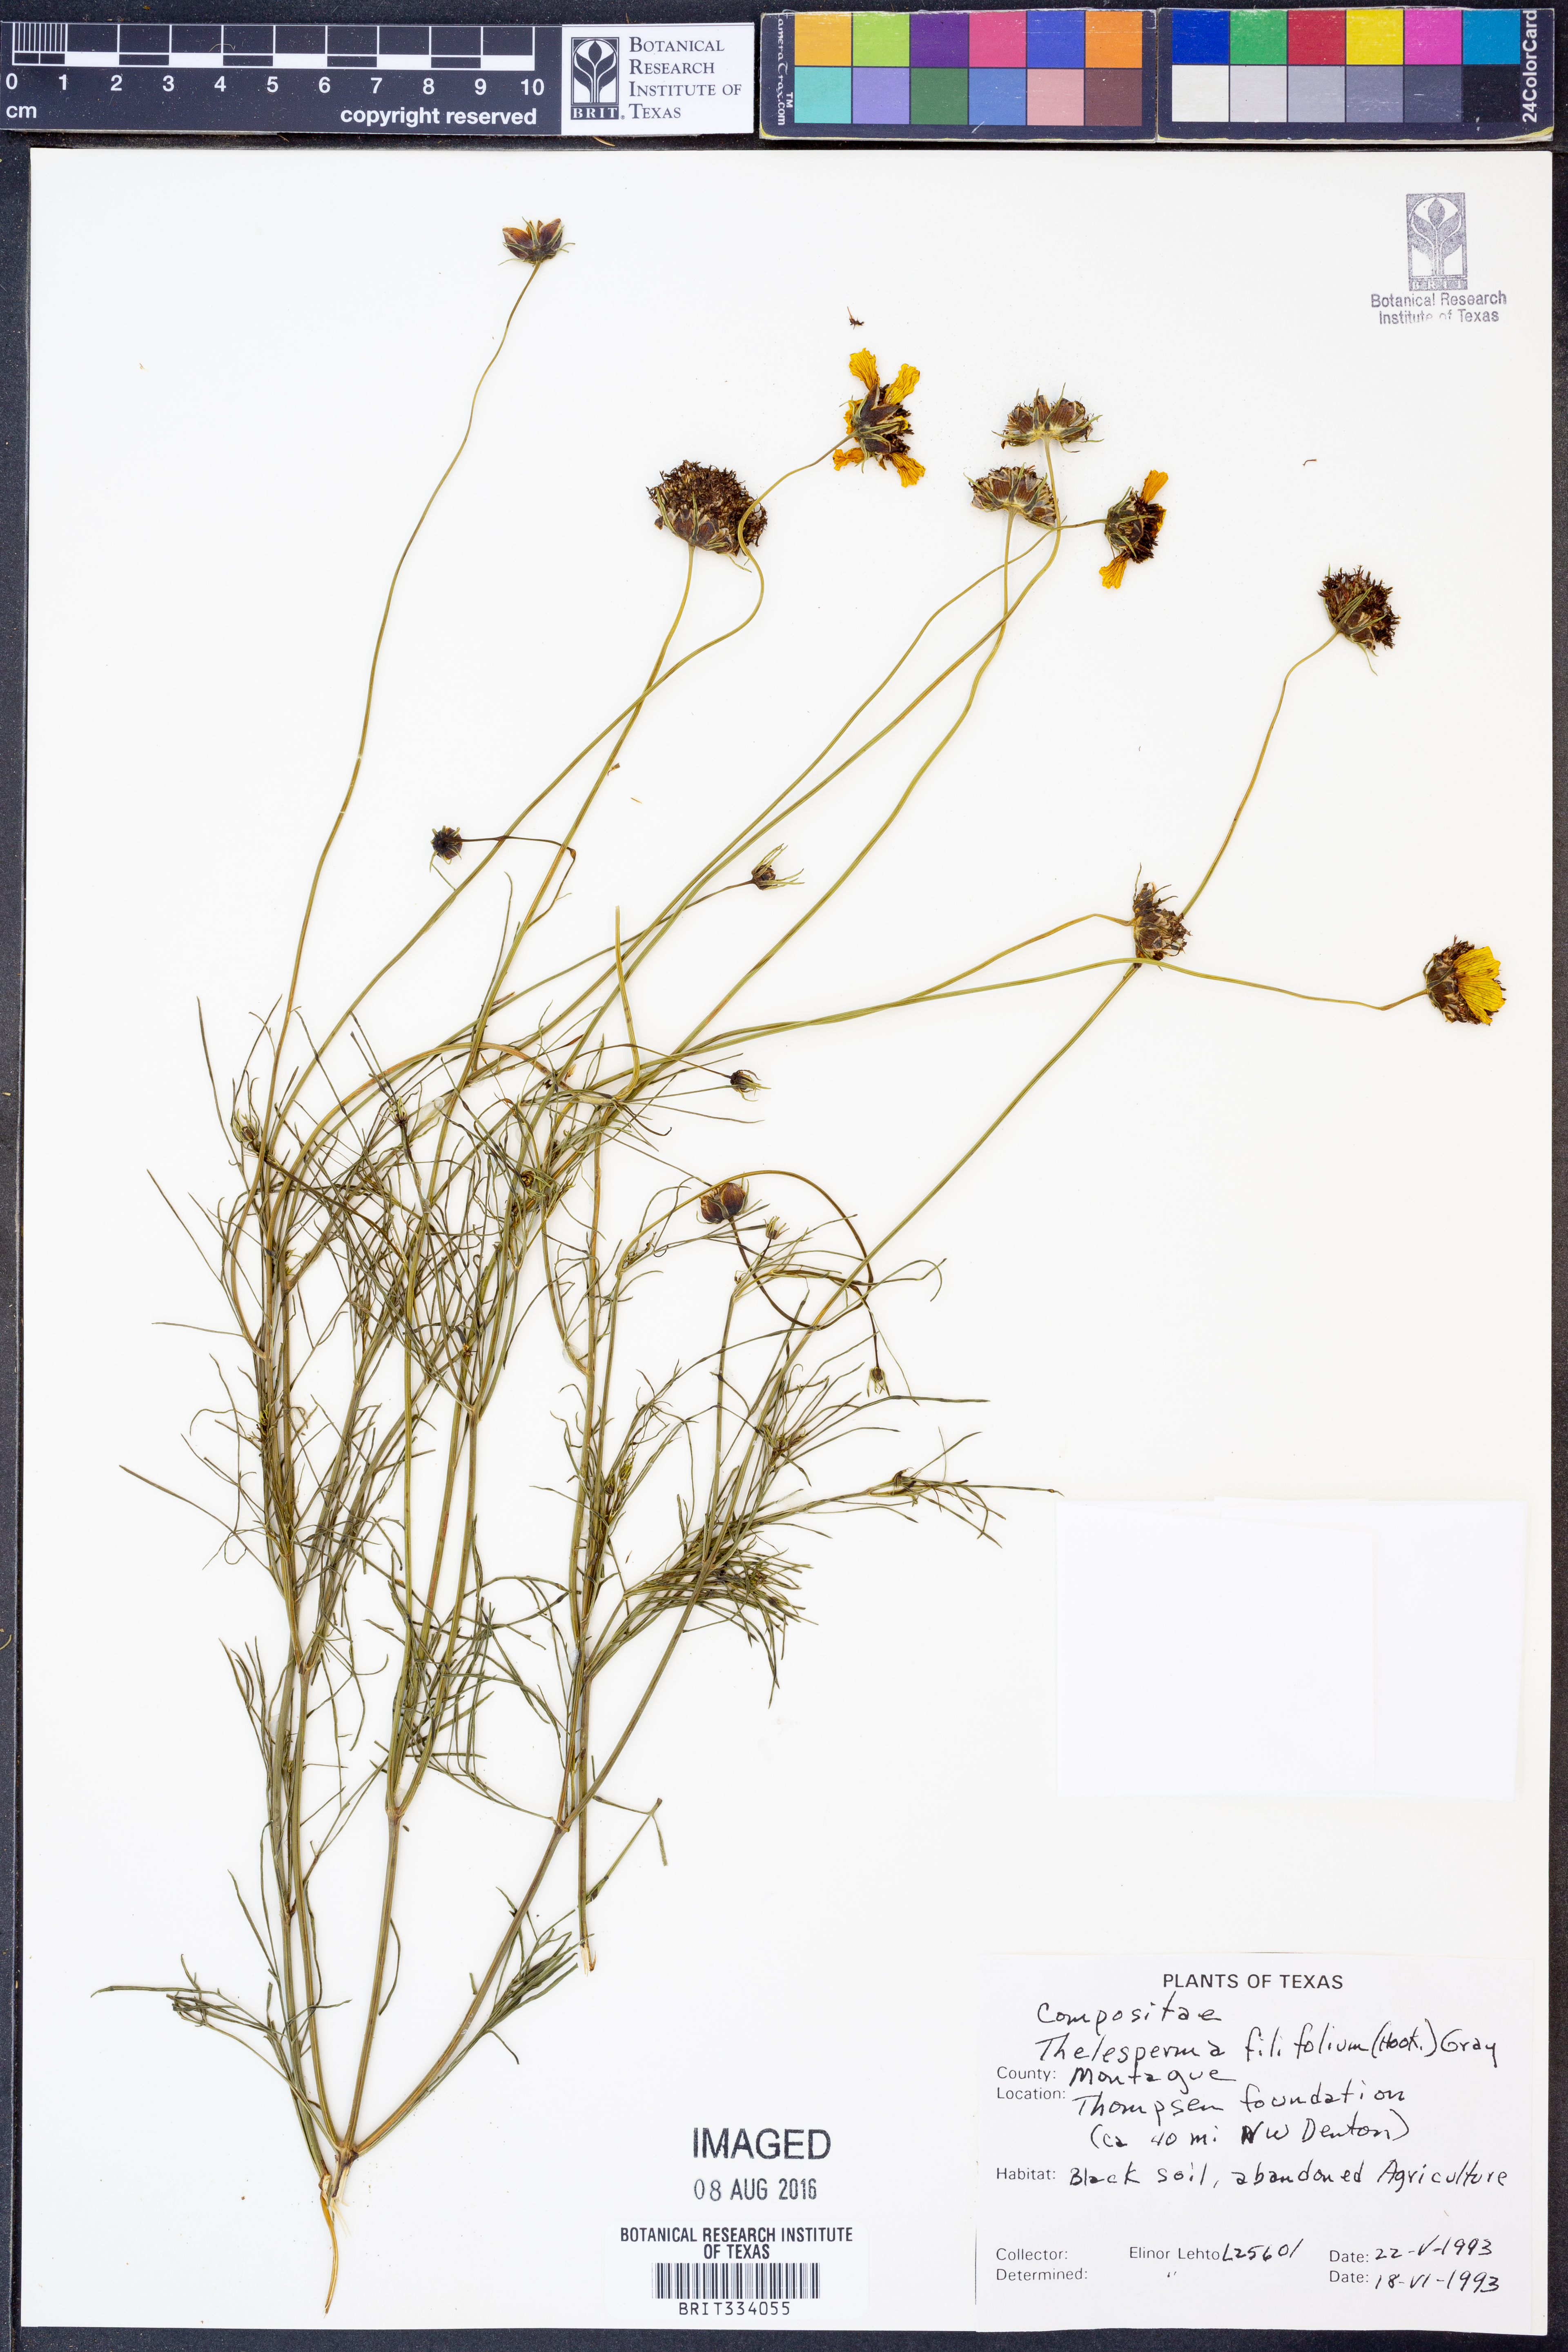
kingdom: Plantae
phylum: Tracheophyta
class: Magnoliopsida
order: Asterales
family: Asteraceae
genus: Thelesperma
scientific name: Thelesperma filifolium
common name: Stiff greenthread
